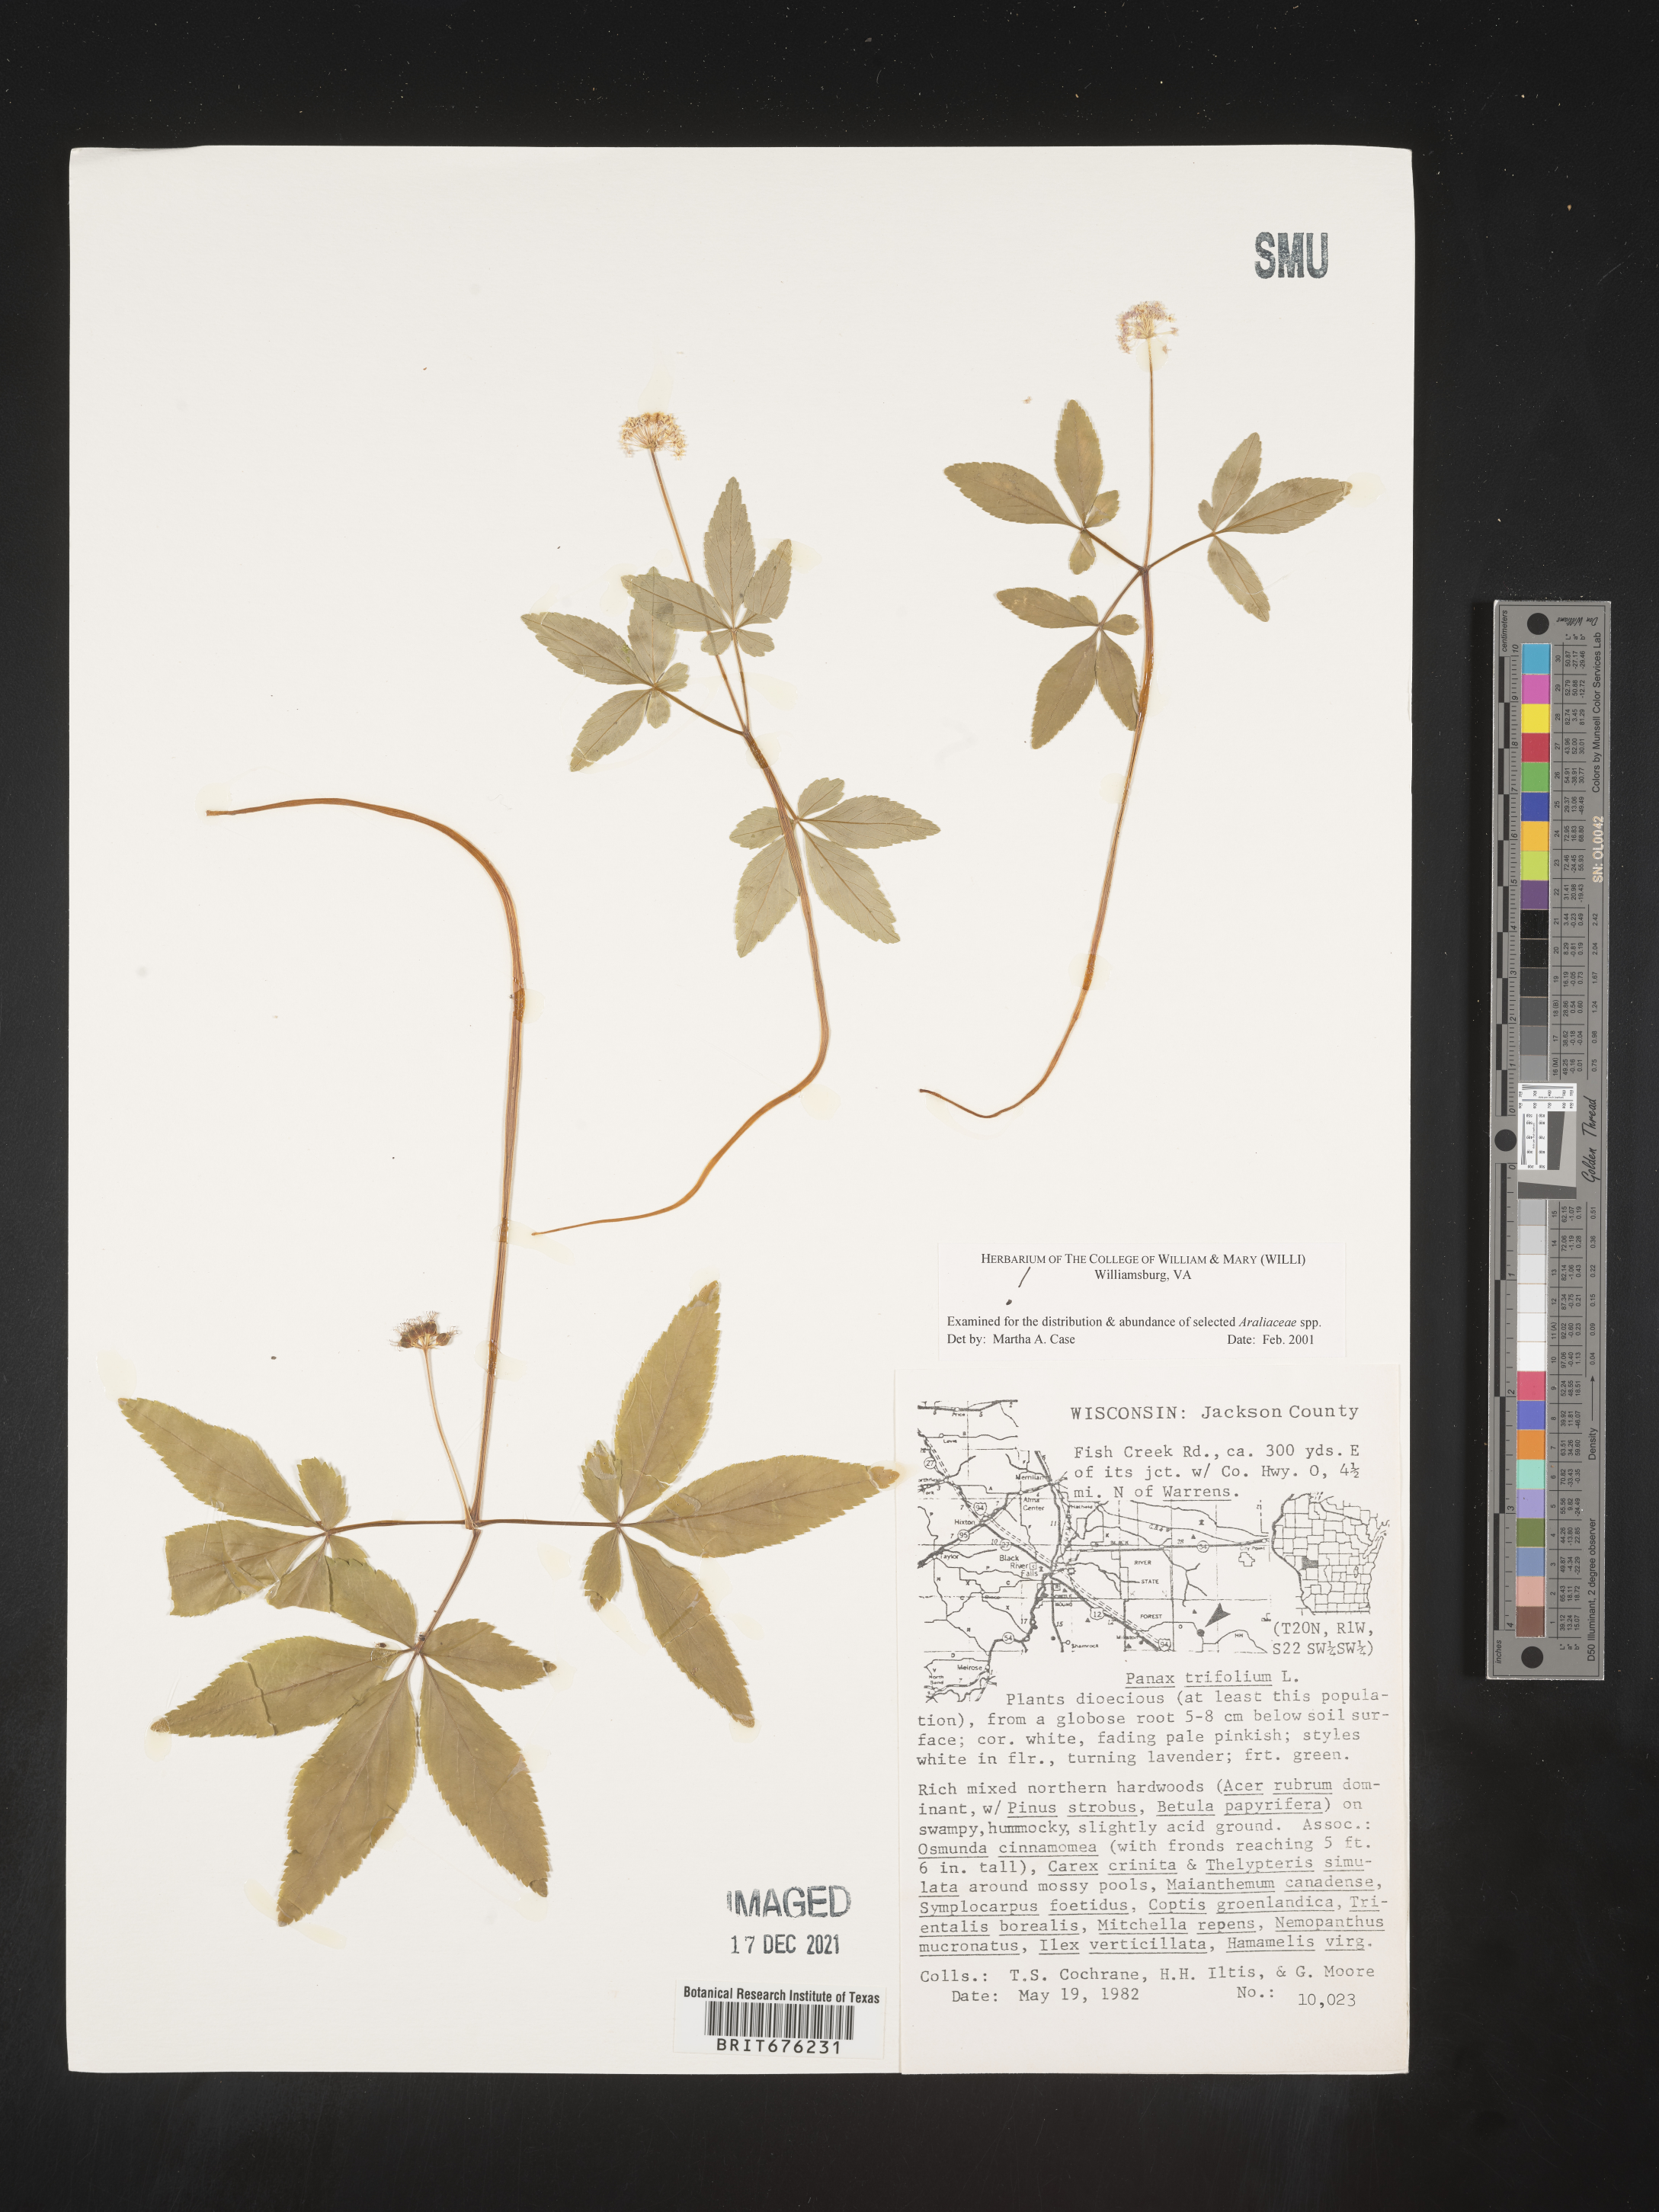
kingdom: Plantae
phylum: Tracheophyta
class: Magnoliopsida
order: Apiales
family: Araliaceae
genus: Panax
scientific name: Panax trifolius
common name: Dwarf ginseng
